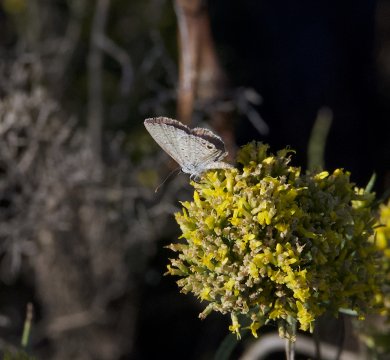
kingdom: Animalia
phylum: Arthropoda
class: Insecta
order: Lepidoptera
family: Lycaenidae
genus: Hemiargus
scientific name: Hemiargus ceraunus
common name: Ceraunus Blue
